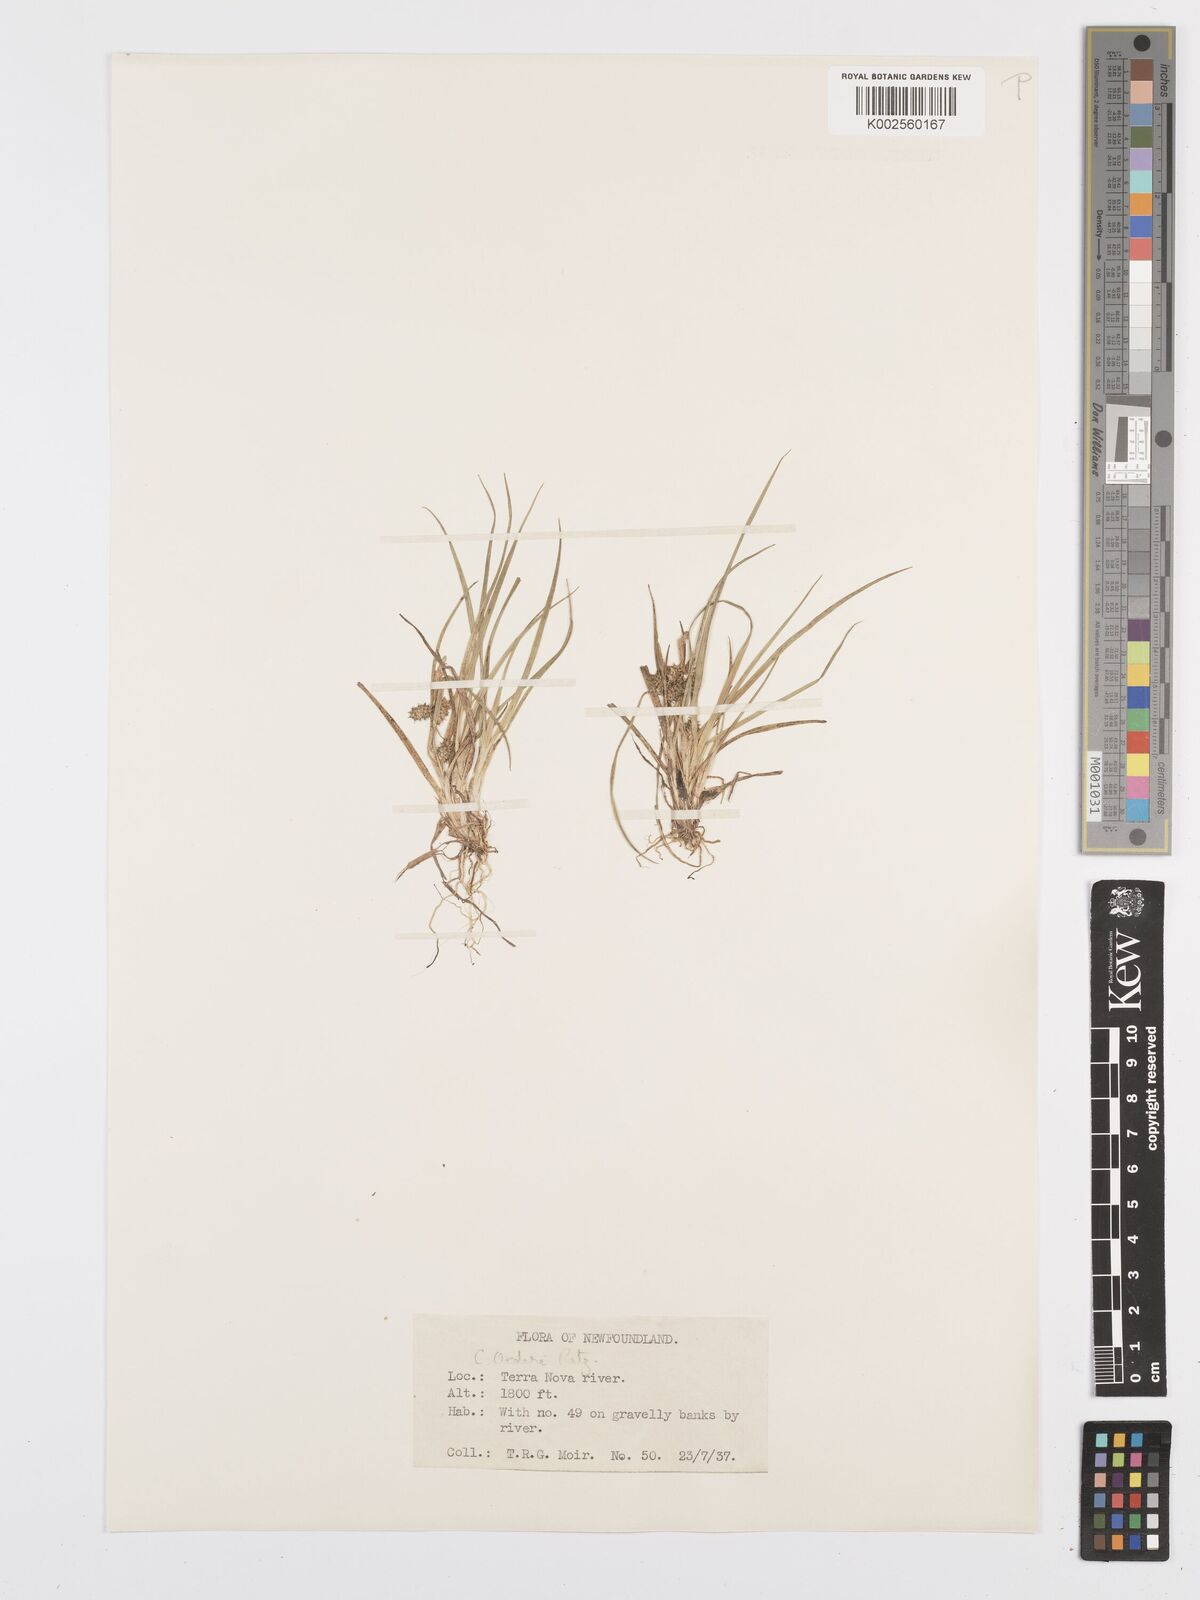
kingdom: Plantae
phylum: Tracheophyta
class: Liliopsida
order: Poales
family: Cyperaceae
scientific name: Cyperaceae
